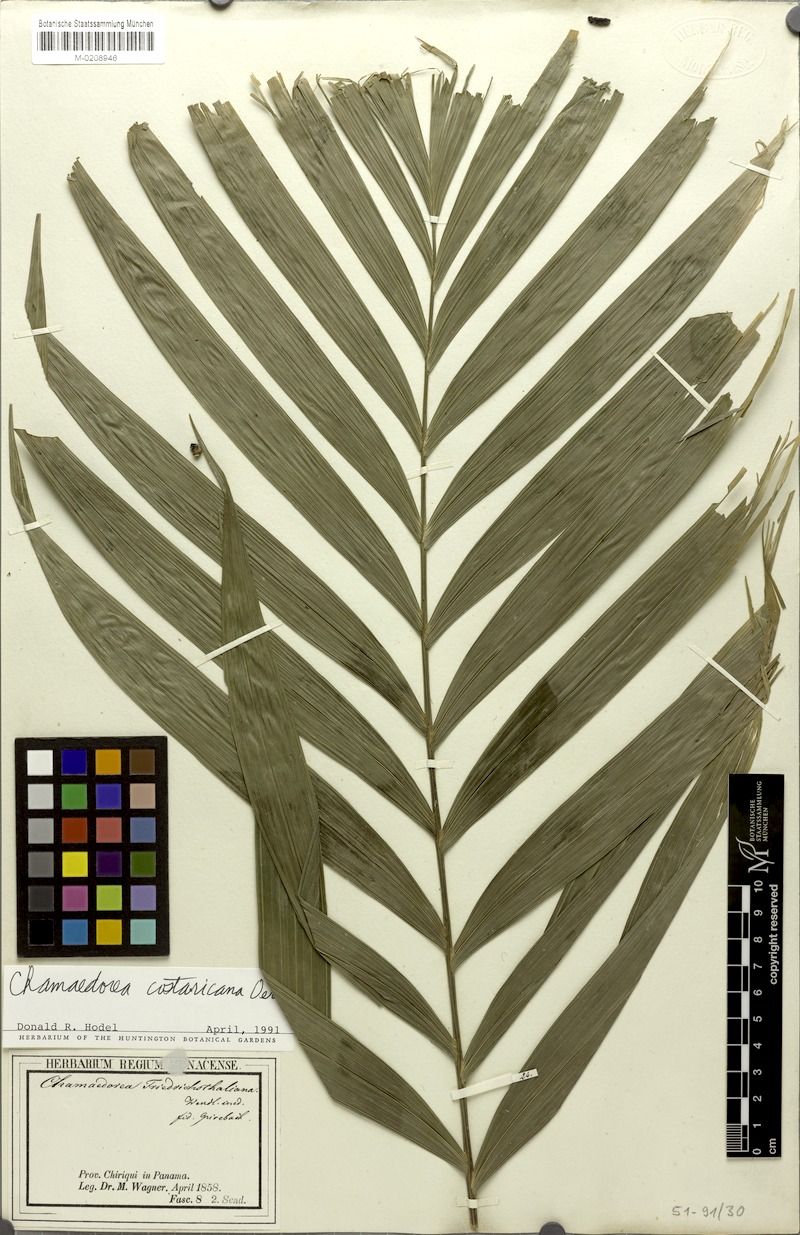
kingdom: Plantae
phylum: Tracheophyta
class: Liliopsida
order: Arecales
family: Arecaceae
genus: Chamaedorea
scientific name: Chamaedorea costaricana
